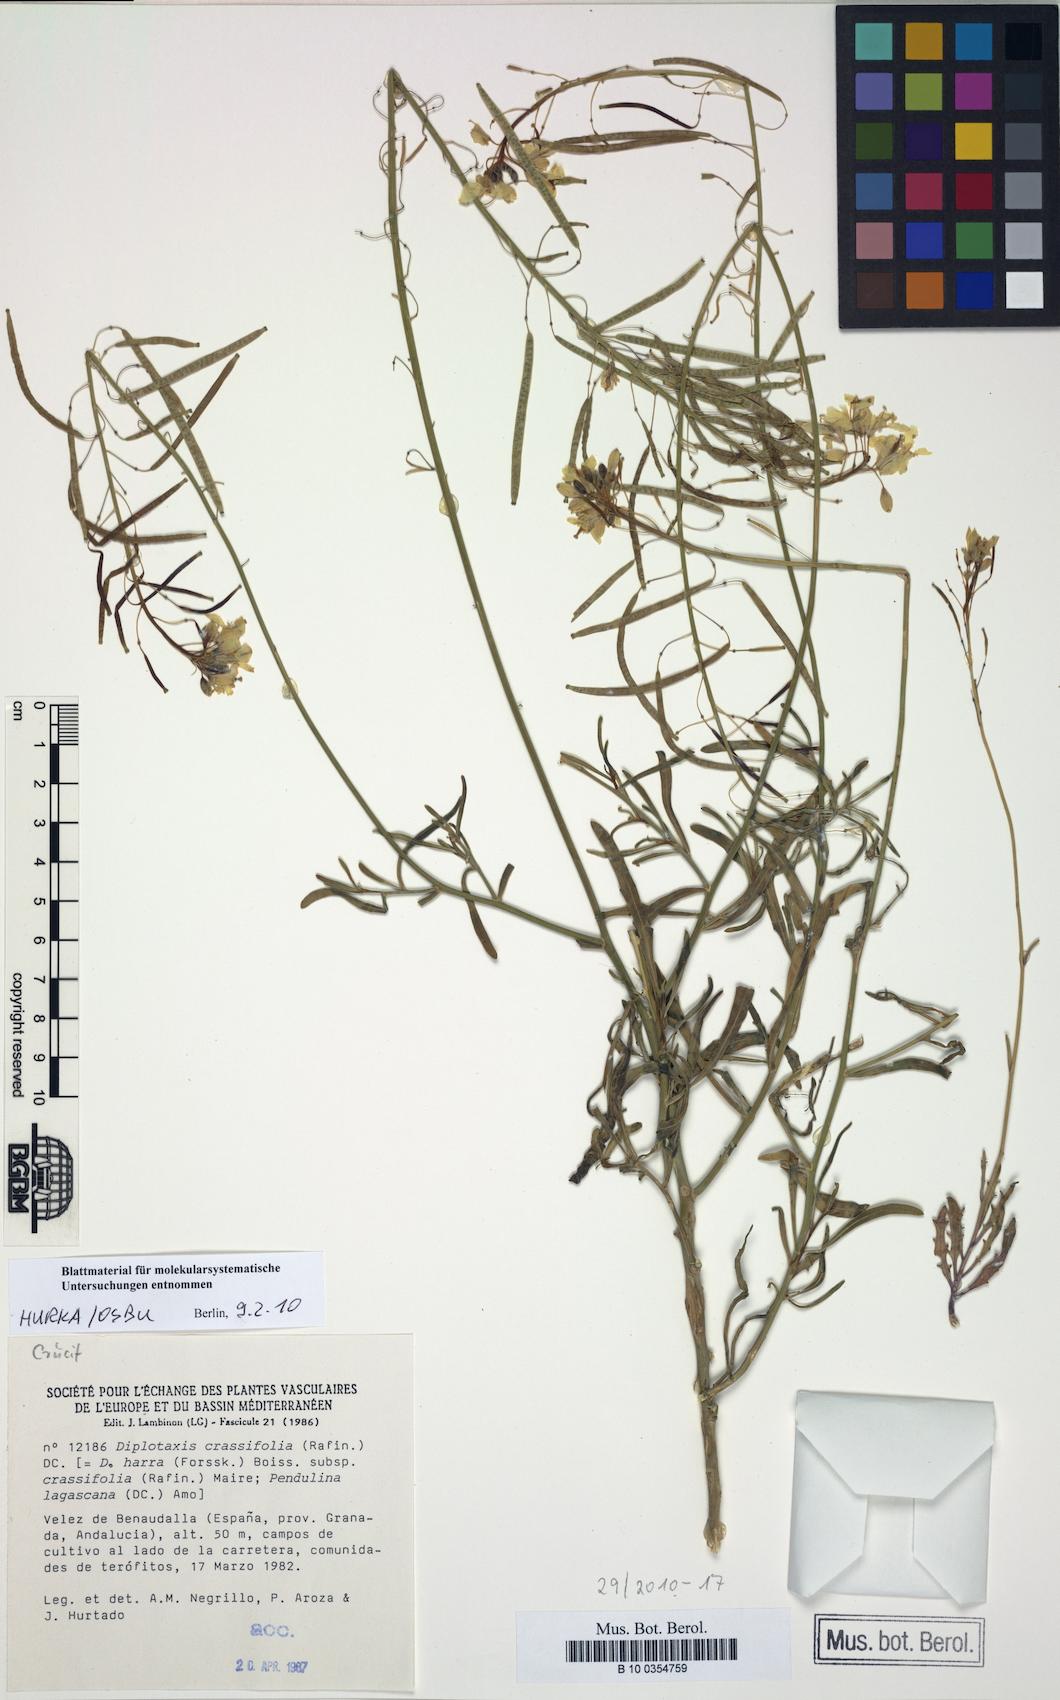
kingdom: Plantae
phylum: Tracheophyta
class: Magnoliopsida
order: Brassicales
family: Brassicaceae
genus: Diplotaxis
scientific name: Diplotaxis harra
